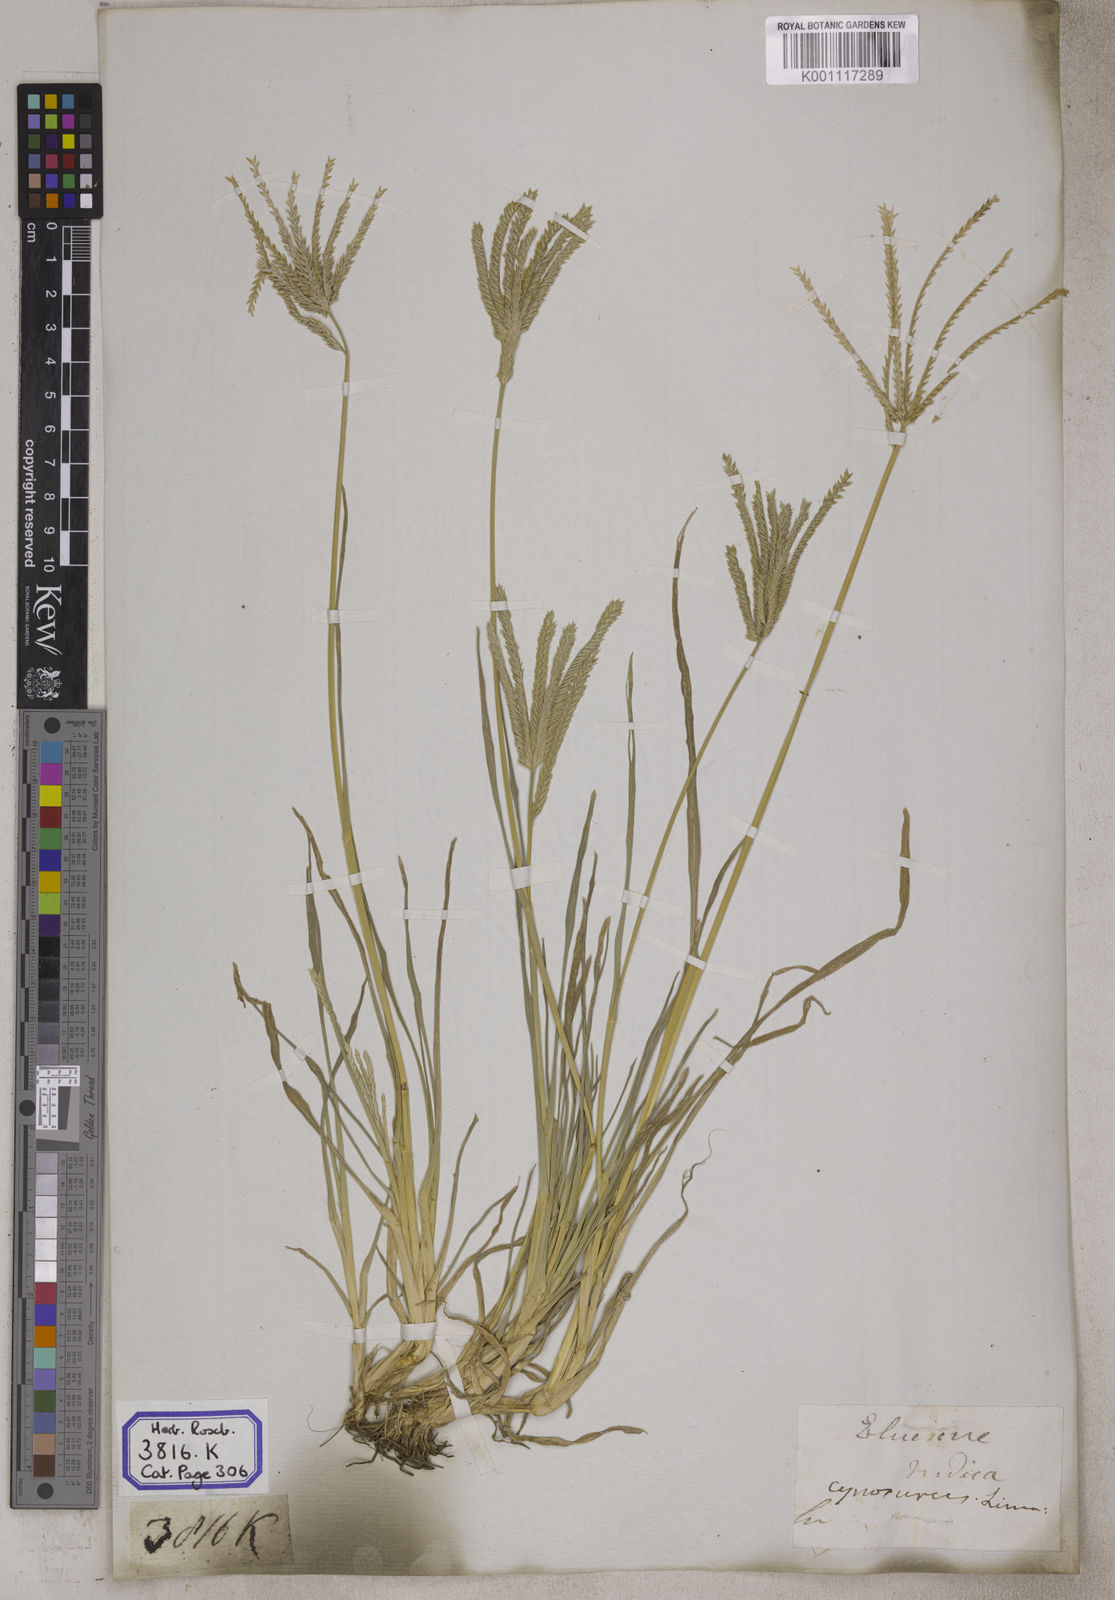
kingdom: Plantae
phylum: Tracheophyta
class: Liliopsida
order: Poales
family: Poaceae
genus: Eleusine
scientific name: Eleusine
